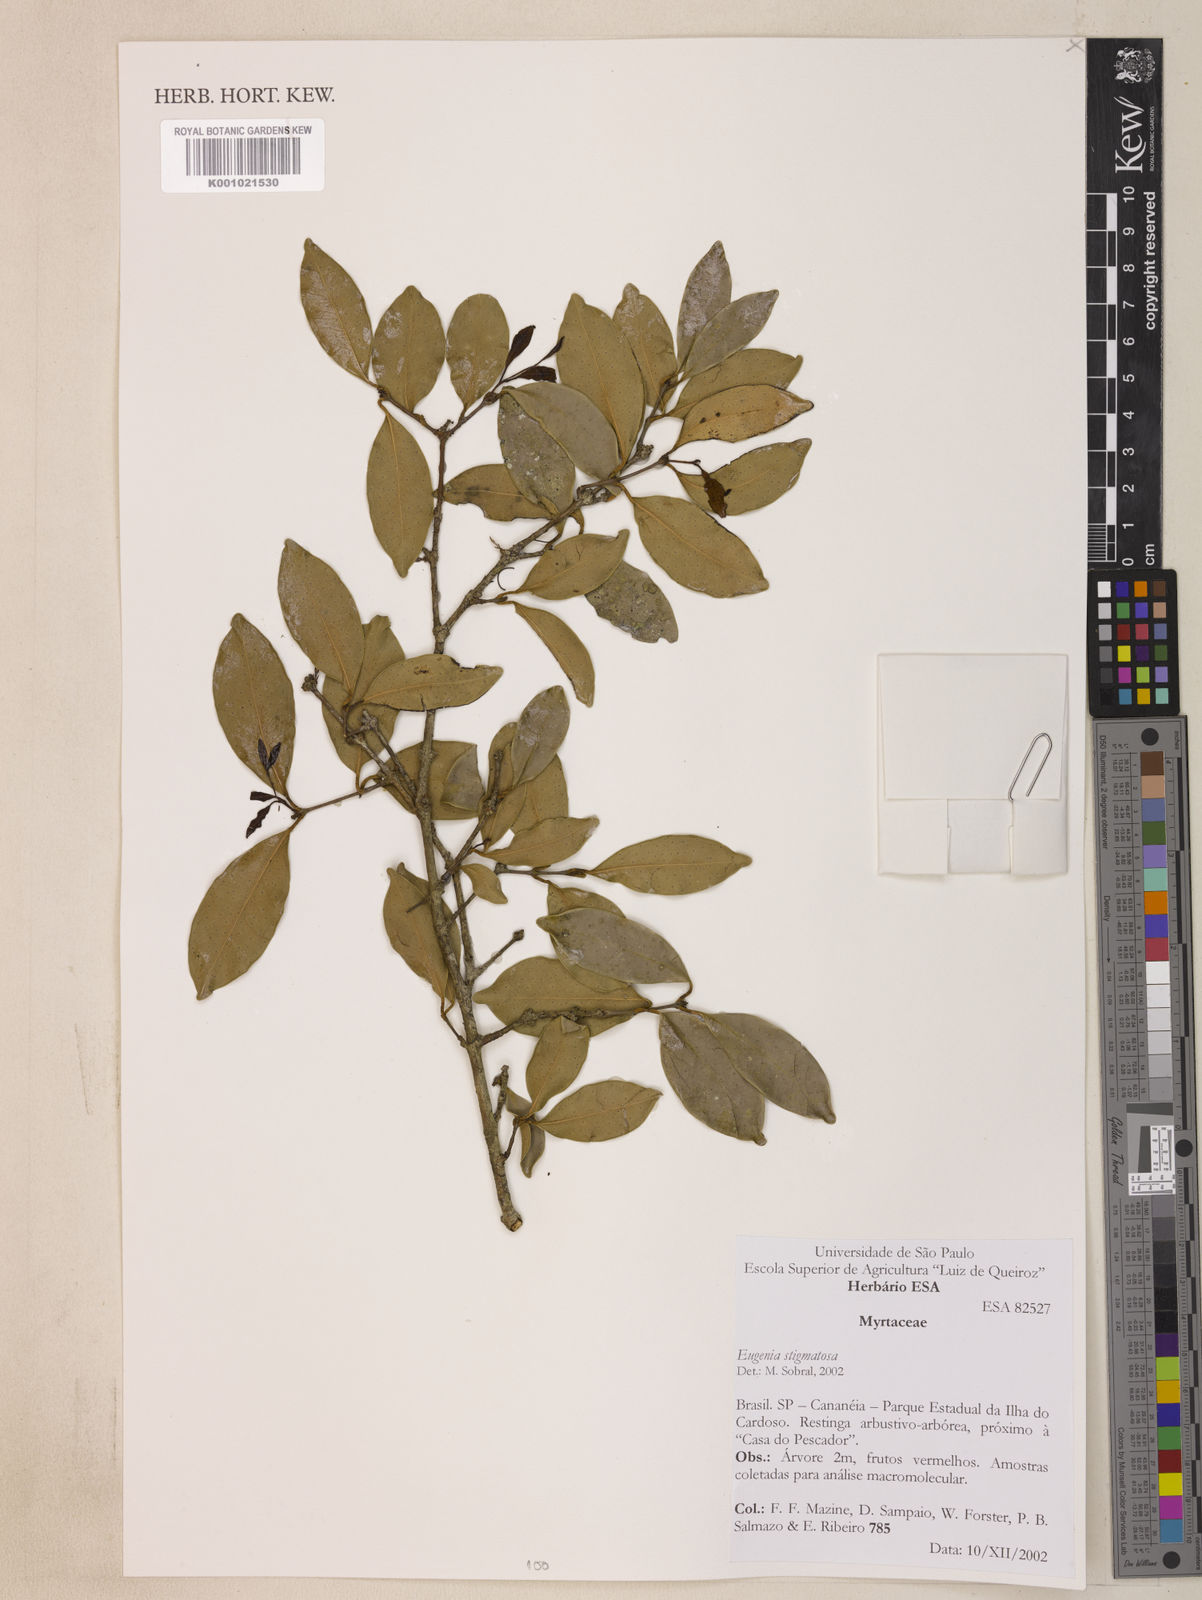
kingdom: Plantae
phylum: Tracheophyta
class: Magnoliopsida
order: Myrtales
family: Myrtaceae
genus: Eugenia
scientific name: Eugenia stigmatosa
